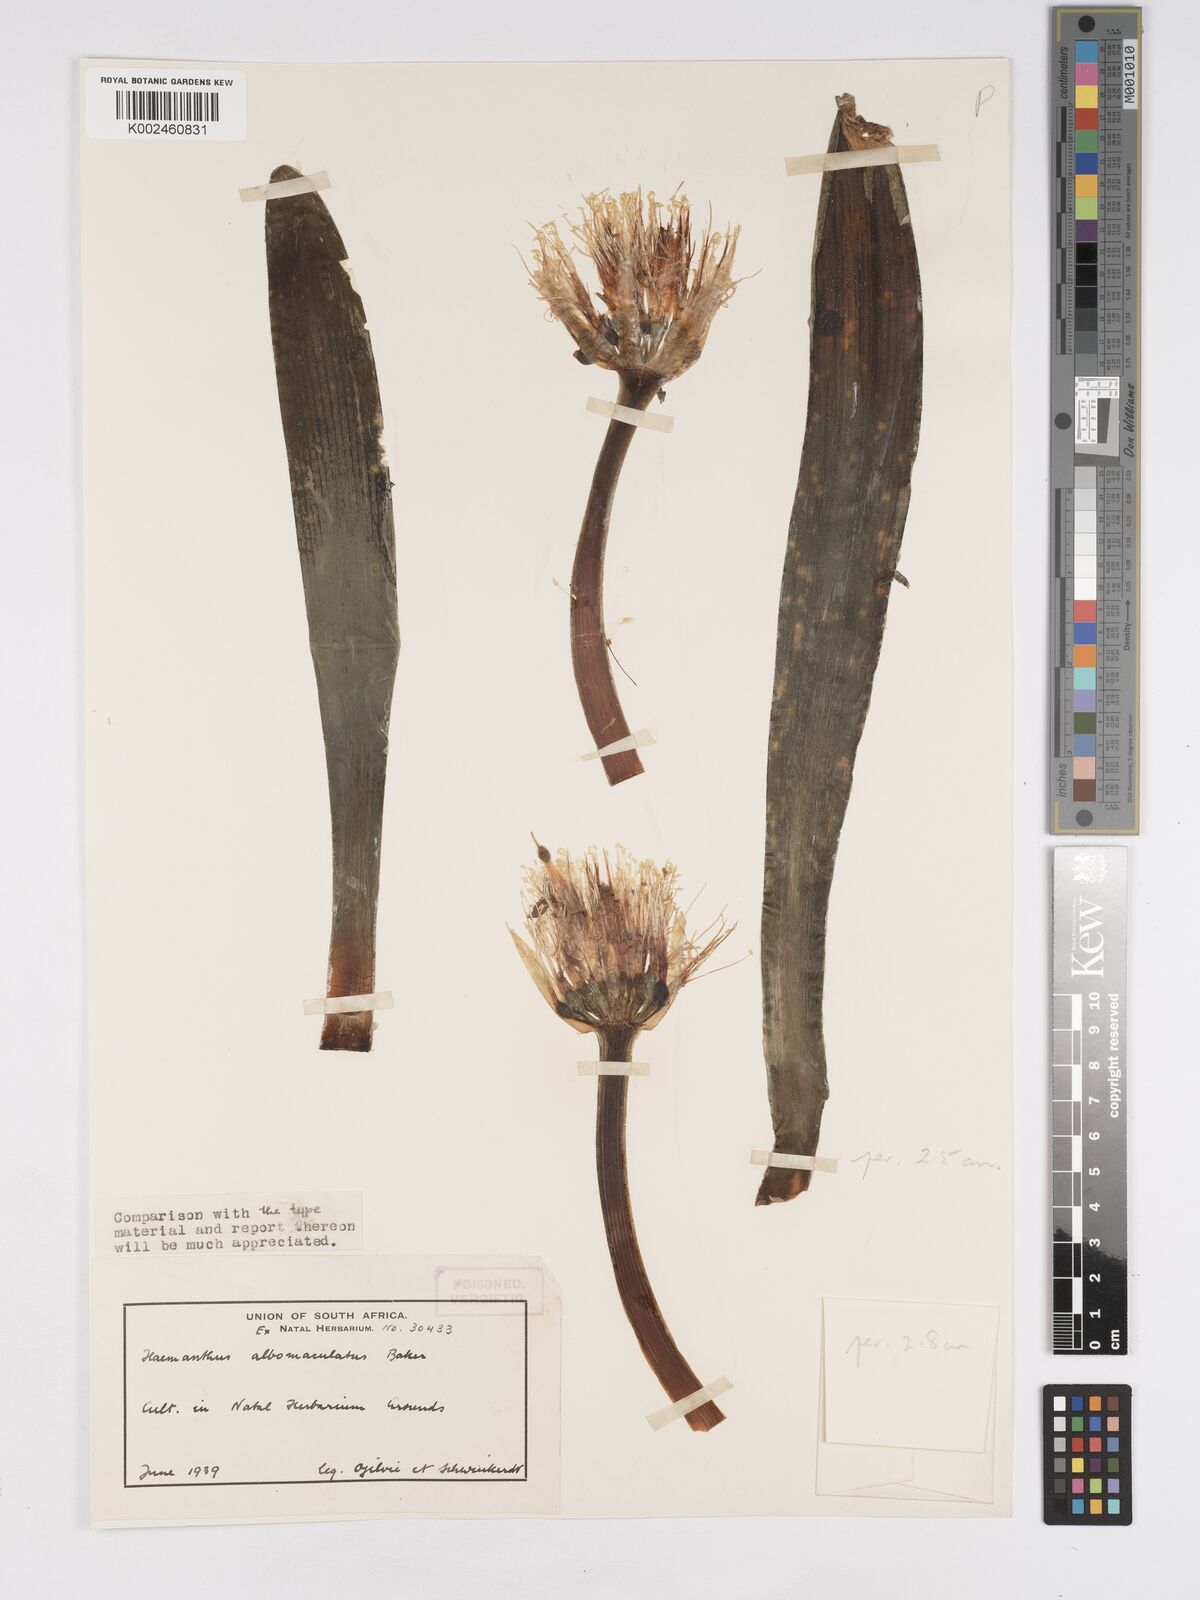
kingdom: Plantae
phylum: Tracheophyta
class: Liliopsida
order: Asparagales
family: Amaryllidaceae
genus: Haemanthus
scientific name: Haemanthus albiflos
